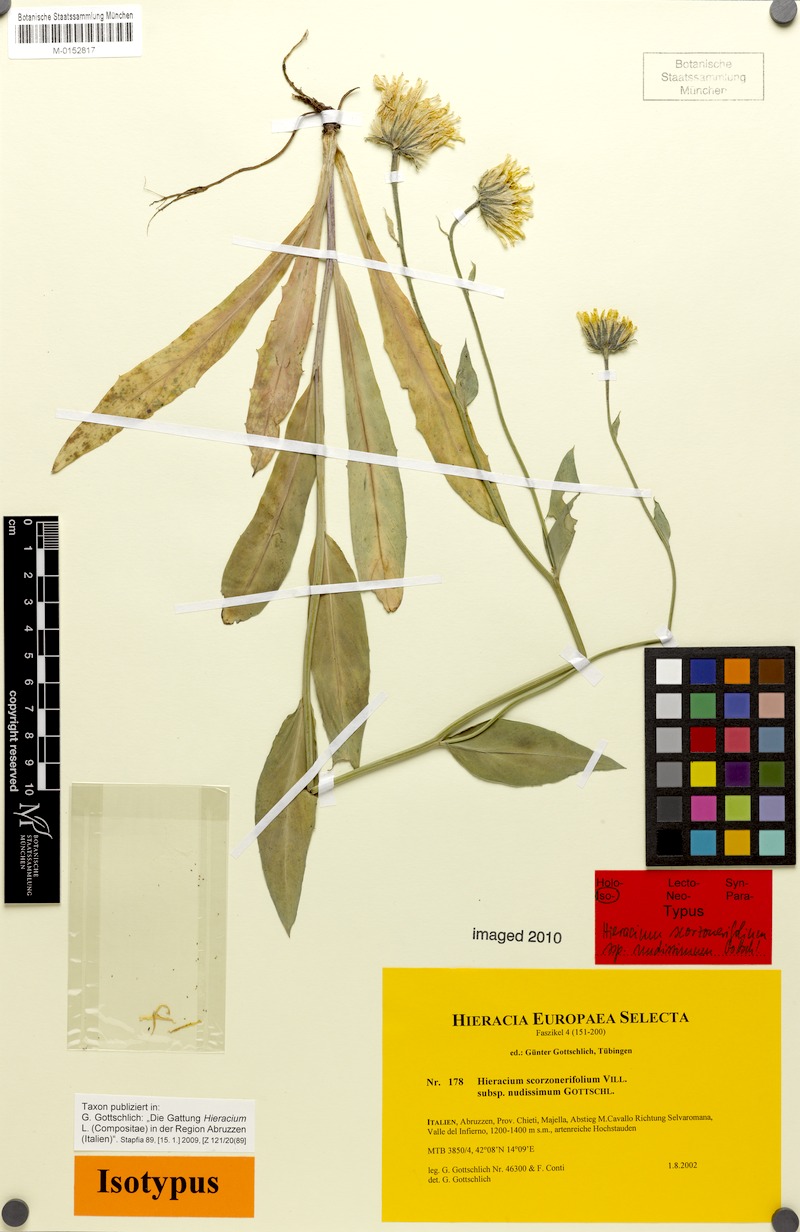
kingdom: Plantae
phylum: Tracheophyta
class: Magnoliopsida
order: Asterales
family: Asteraceae
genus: Hieracium
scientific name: Hieracium scorzonerifolium
